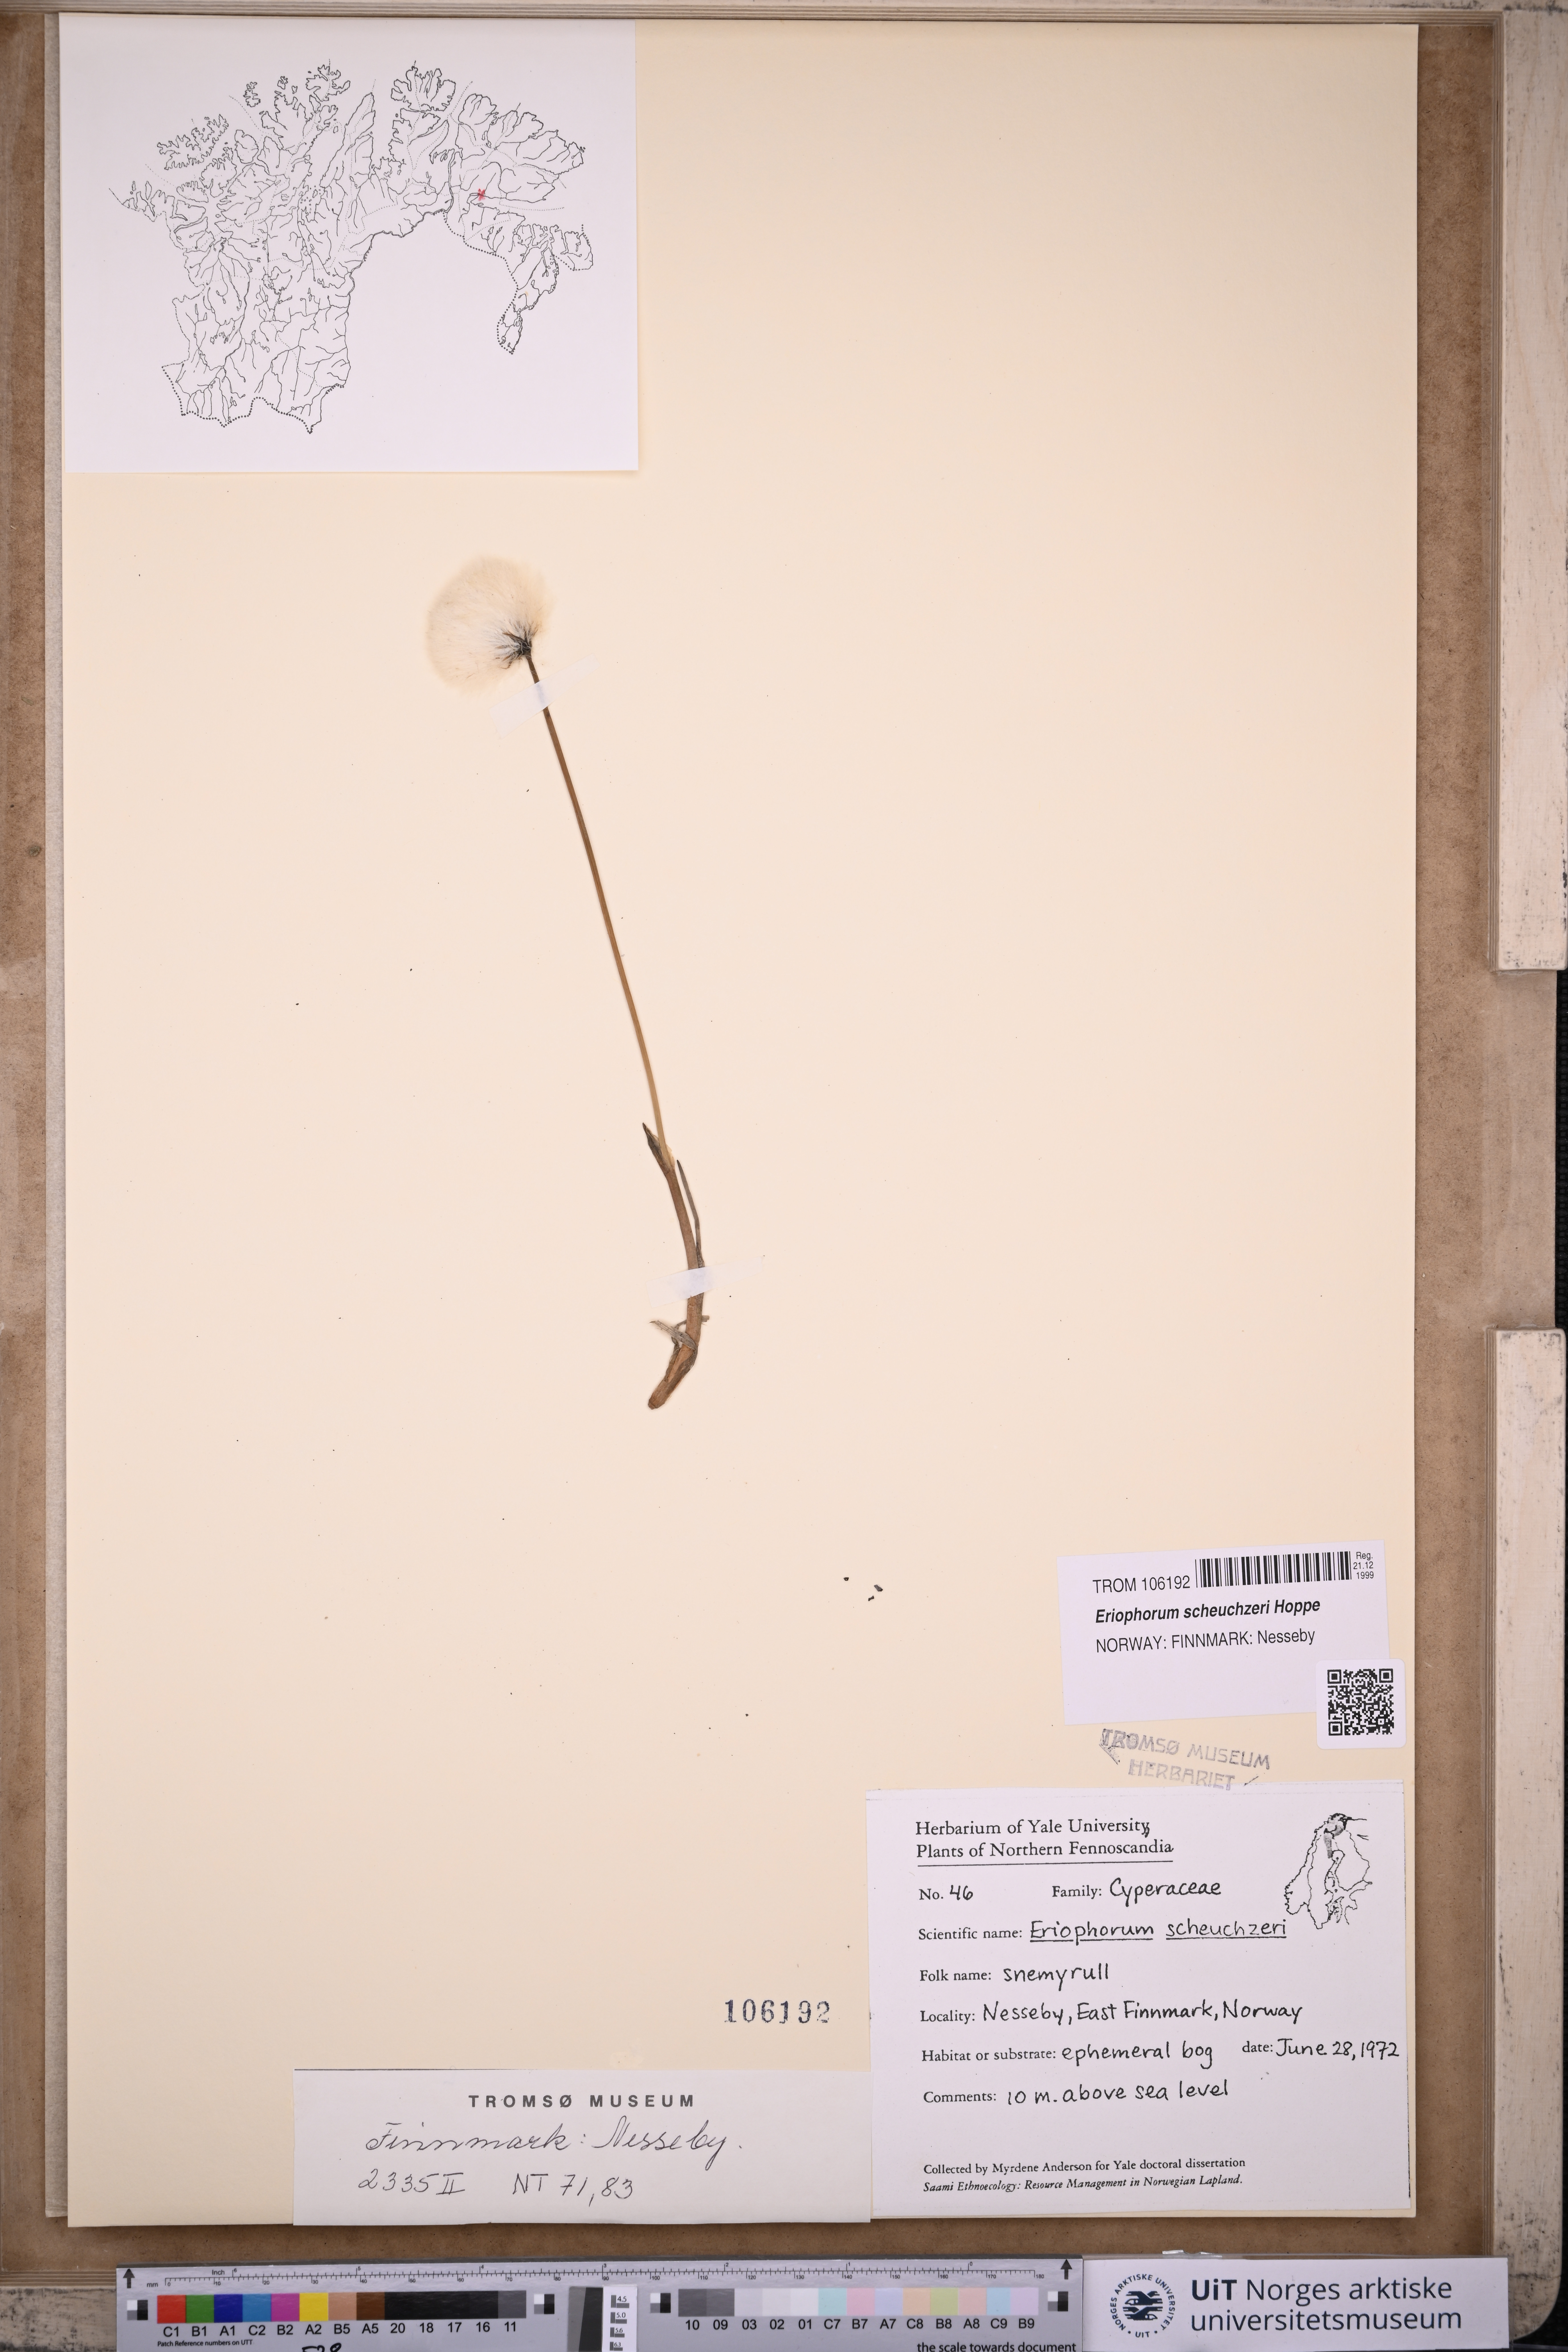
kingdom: Plantae
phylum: Tracheophyta
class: Liliopsida
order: Poales
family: Cyperaceae
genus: Eriophorum
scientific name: Eriophorum scheuchzeri
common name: Scheuchzer's cottongrass
